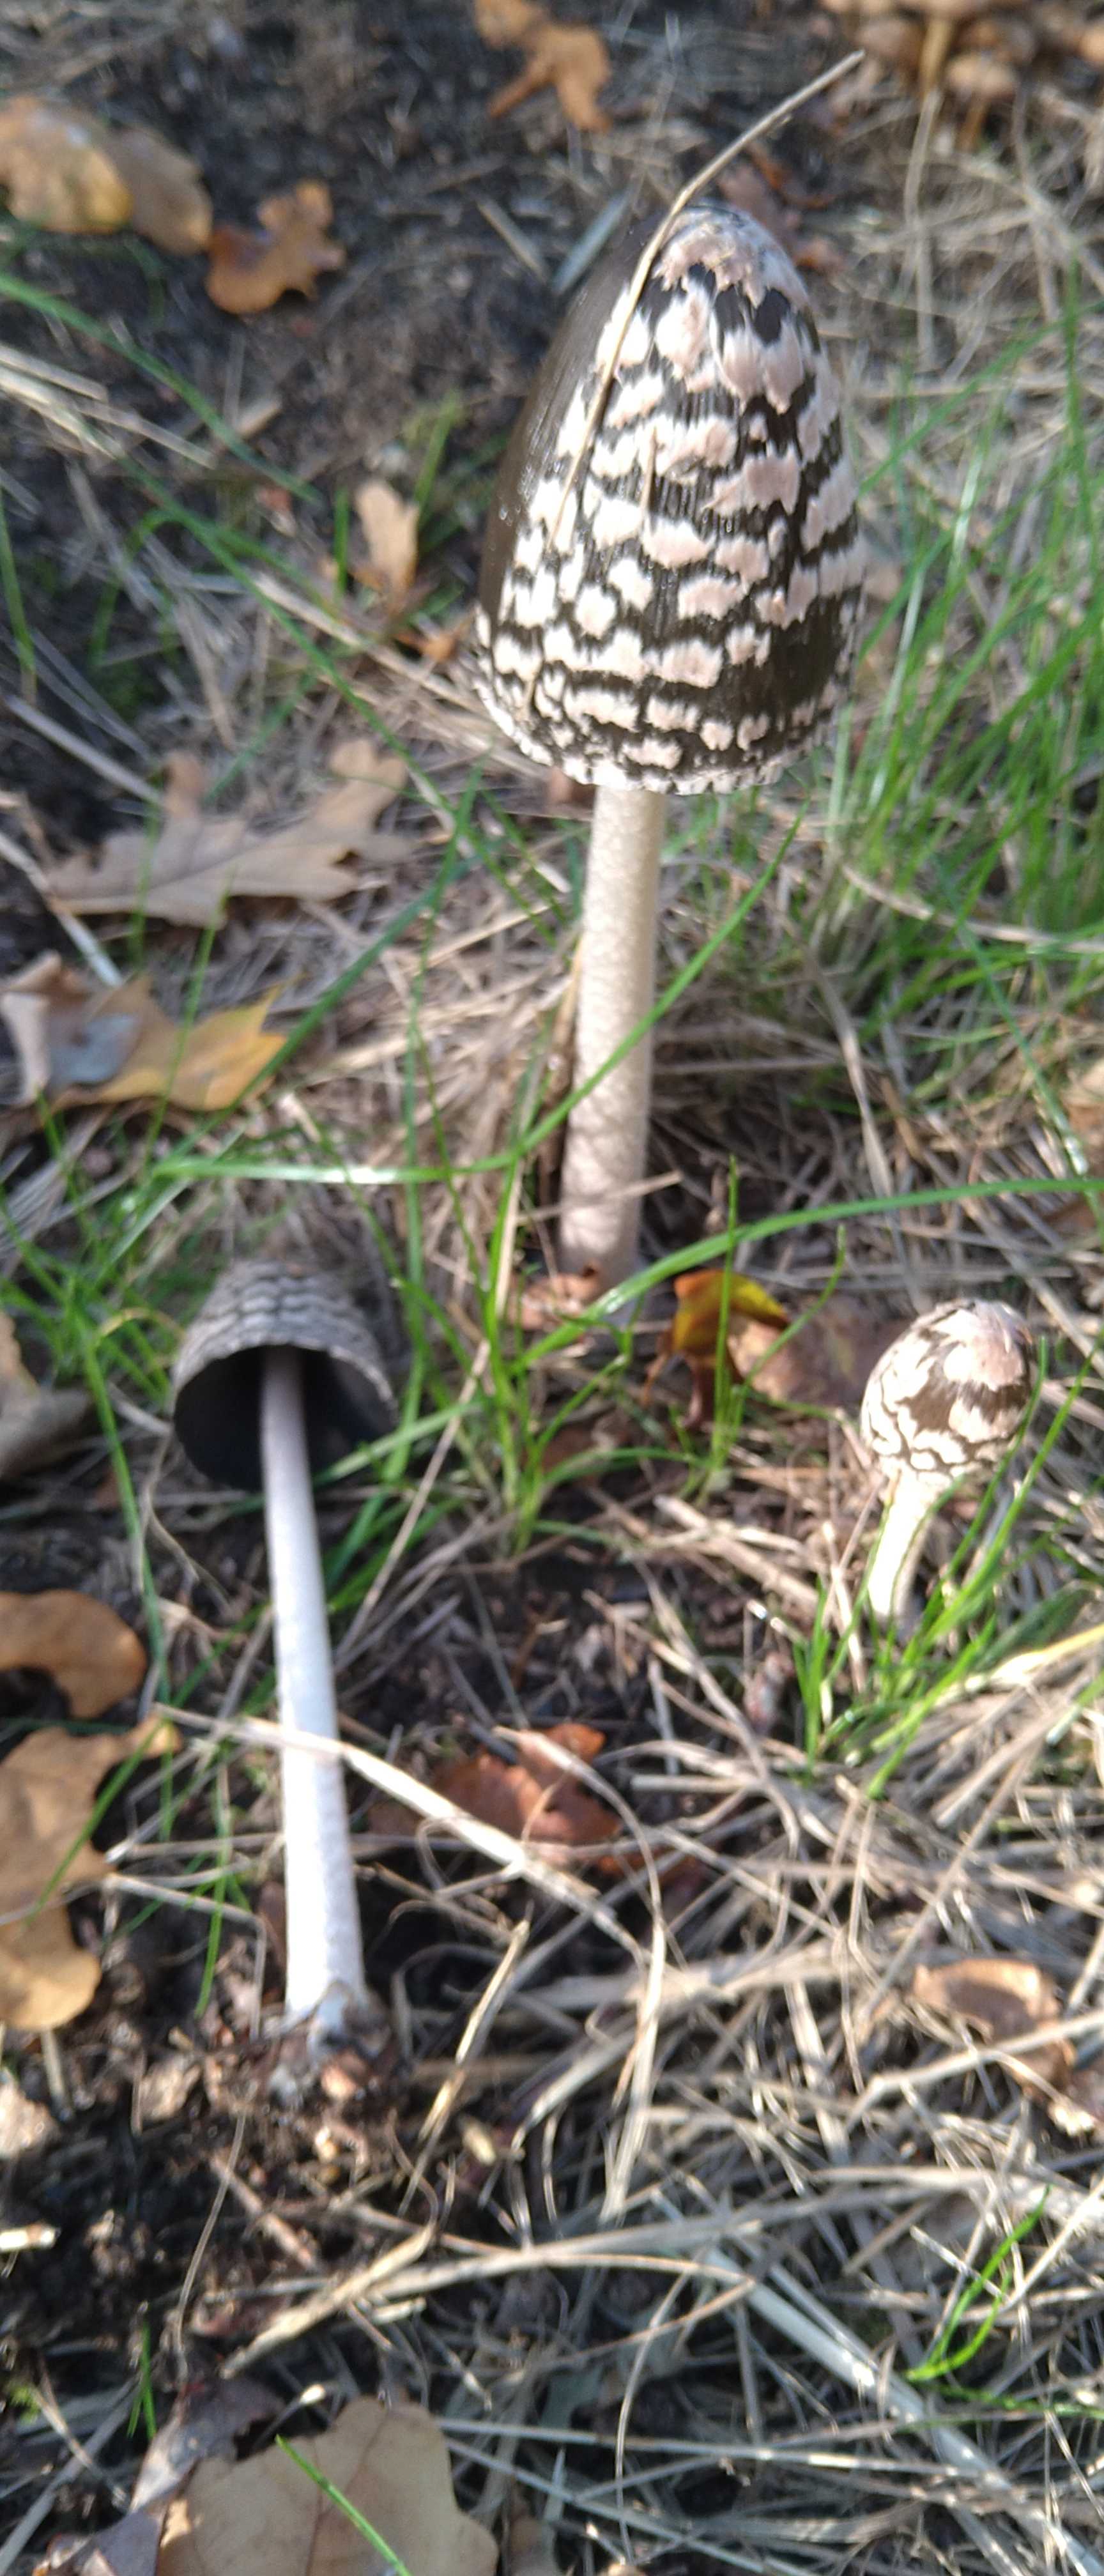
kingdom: Fungi
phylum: Basidiomycota
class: Agaricomycetes
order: Agaricales
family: Psathyrellaceae
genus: Coprinopsis
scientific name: Coprinopsis picacea
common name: skade-blækhat
